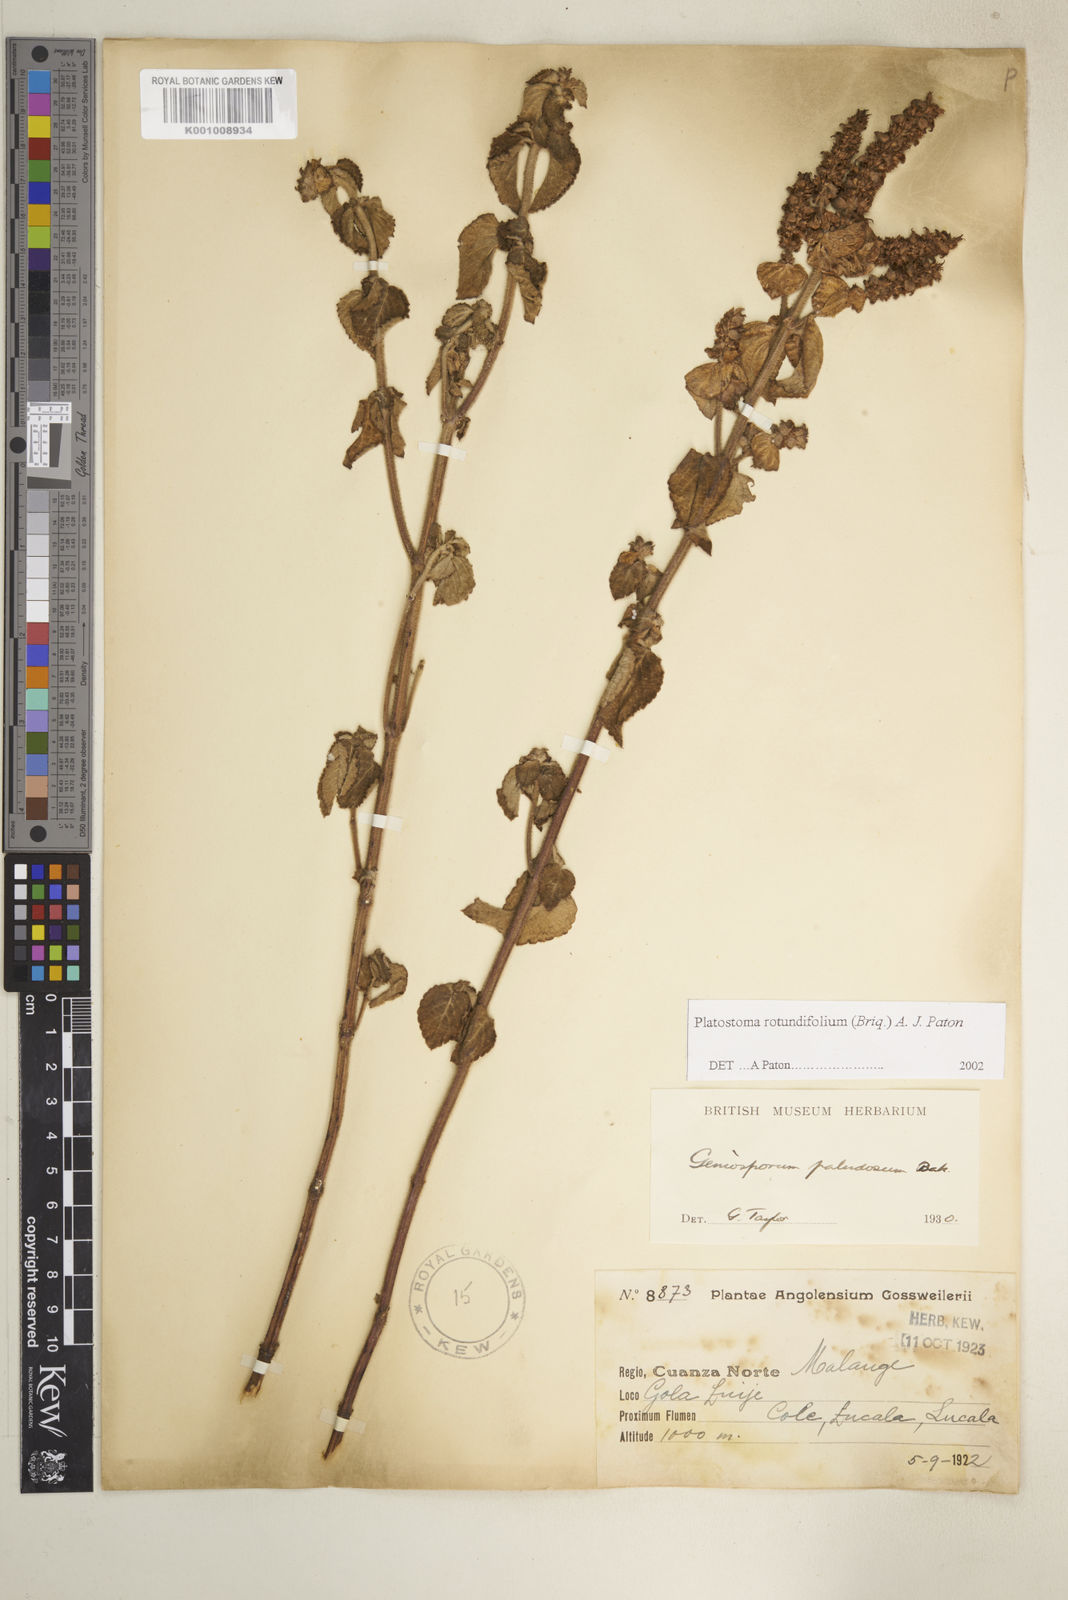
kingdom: Plantae
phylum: Tracheophyta
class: Magnoliopsida
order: Lamiales
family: Lamiaceae
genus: Platostoma
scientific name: Platostoma rotundifolium
